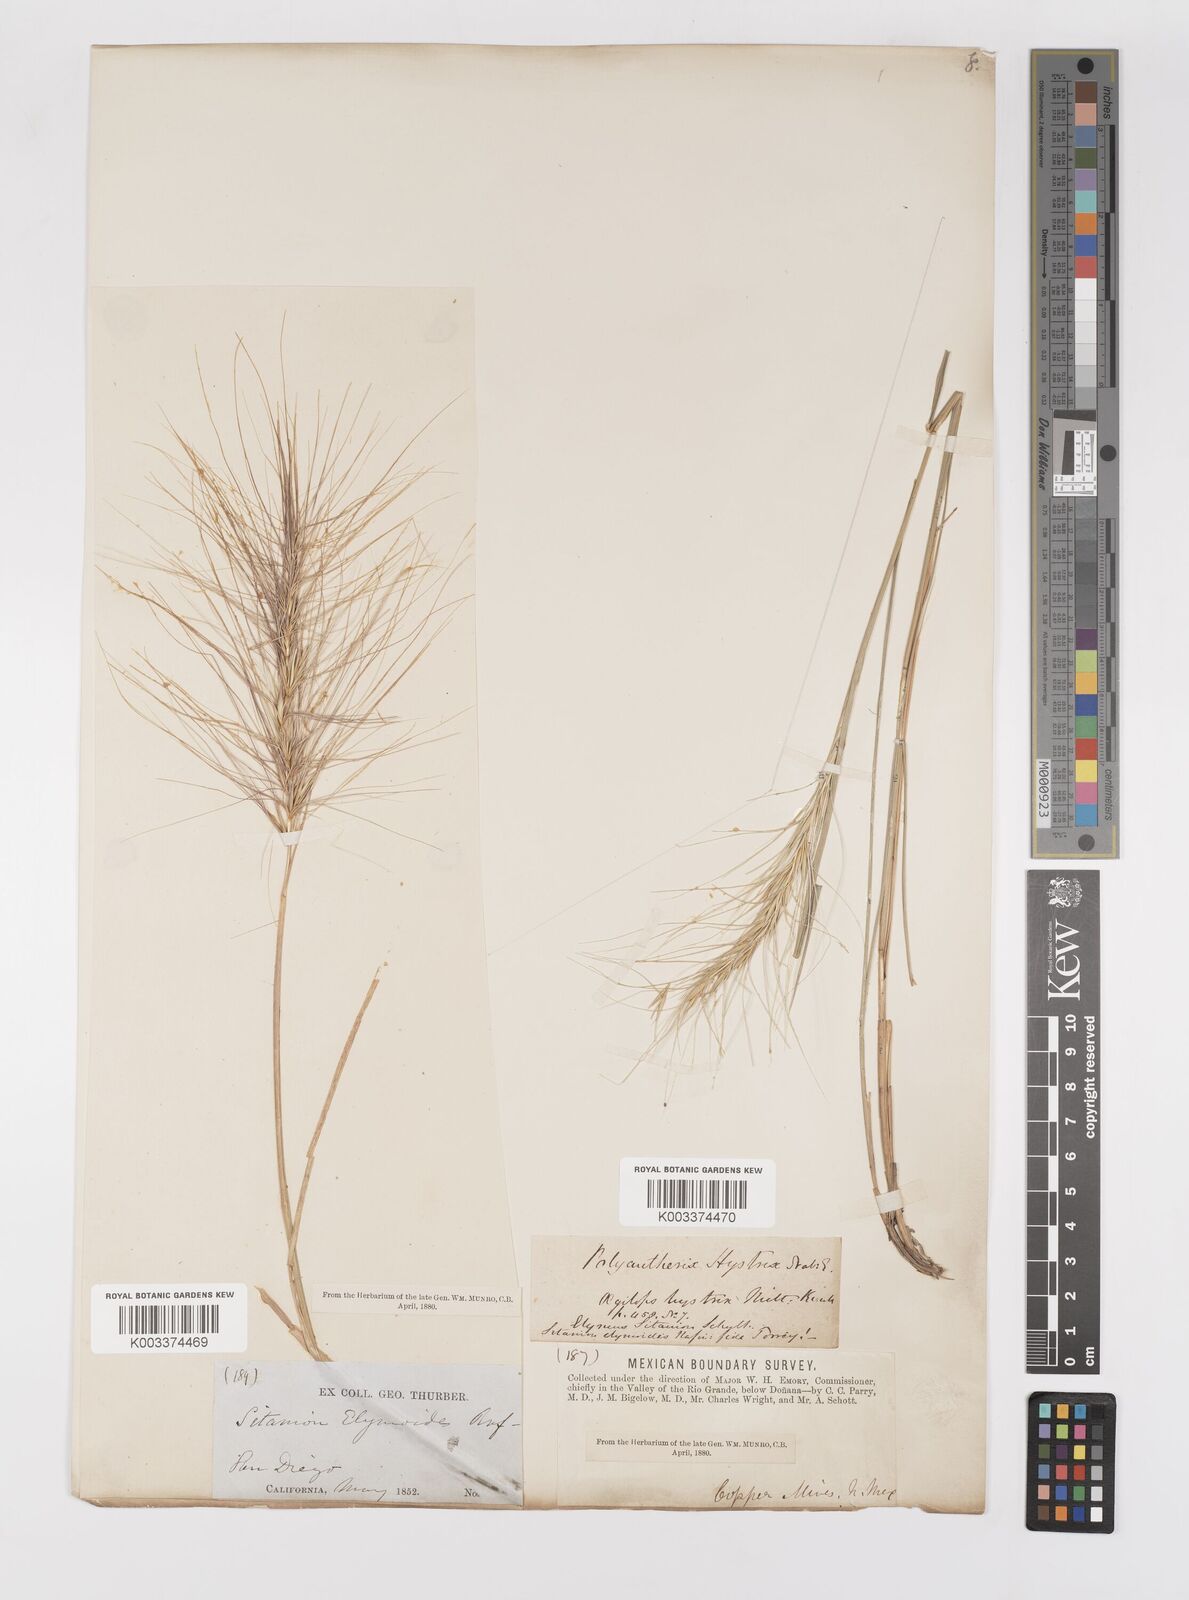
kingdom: Plantae
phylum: Tracheophyta
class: Liliopsida
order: Poales
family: Poaceae
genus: Elymus
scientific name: Elymus multisetus
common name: Big squirreltail
